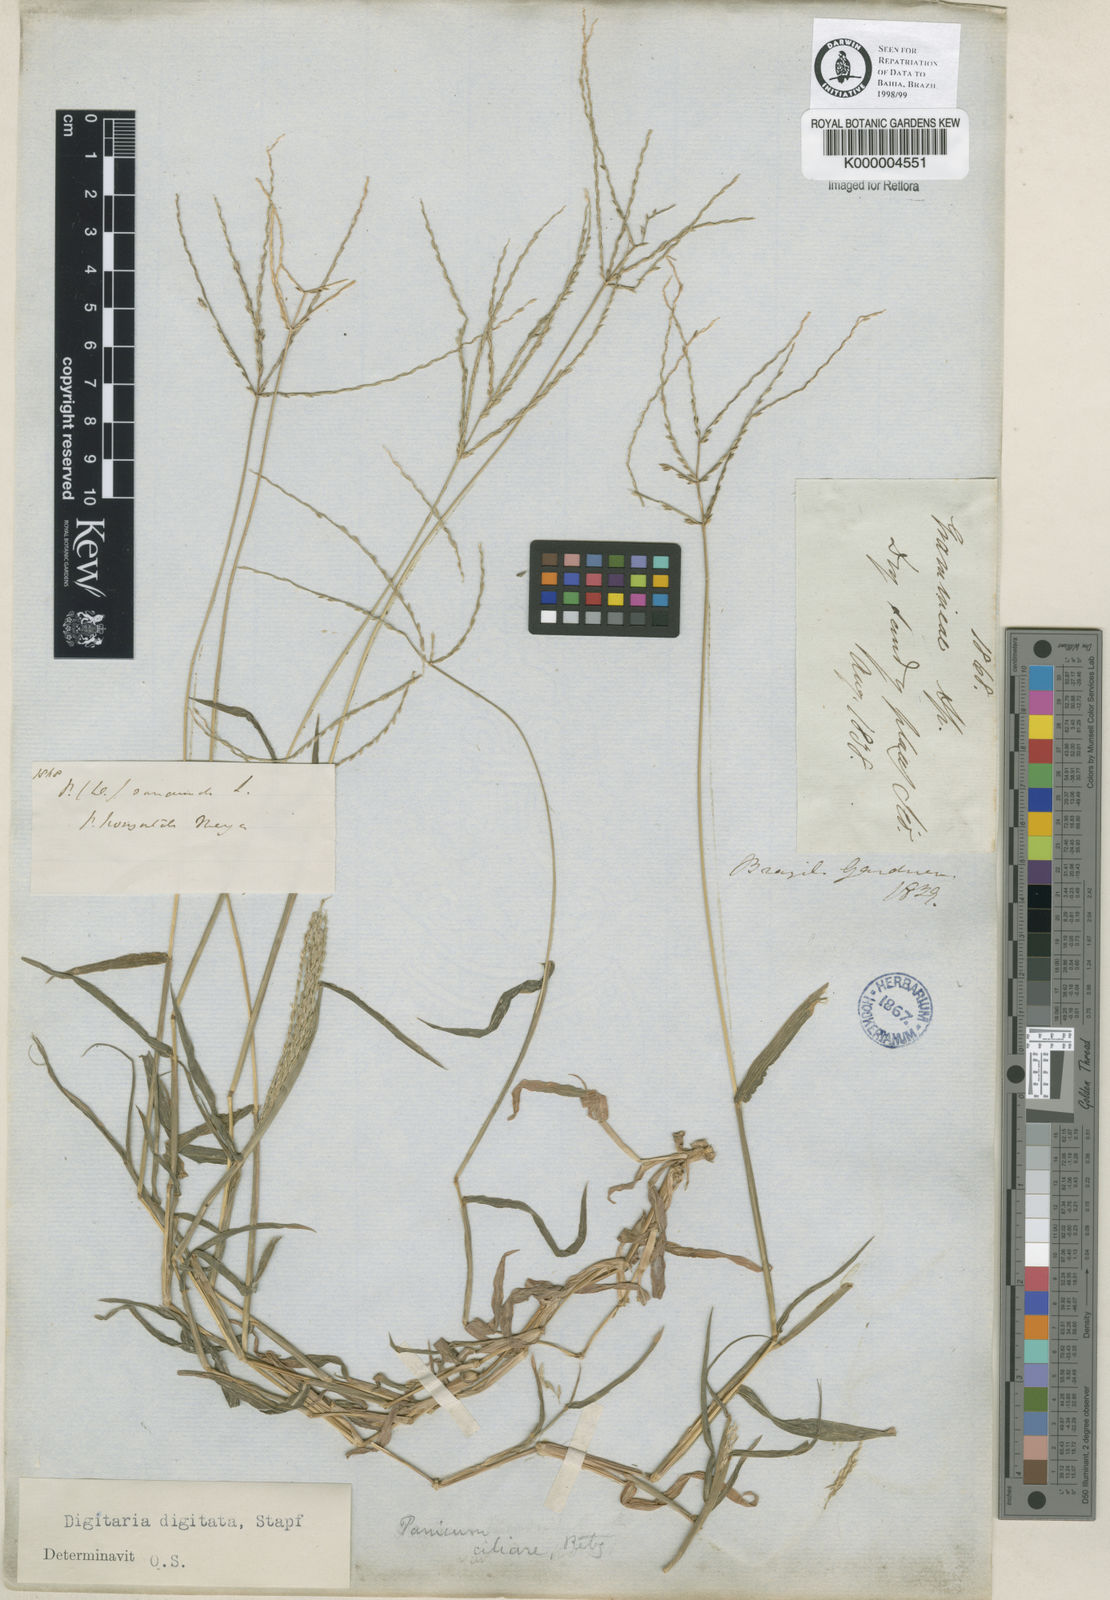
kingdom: Plantae
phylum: Tracheophyta
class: Liliopsida
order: Poales
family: Poaceae
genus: Digitaria
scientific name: Digitaria nuda
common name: Naked crabgrass
